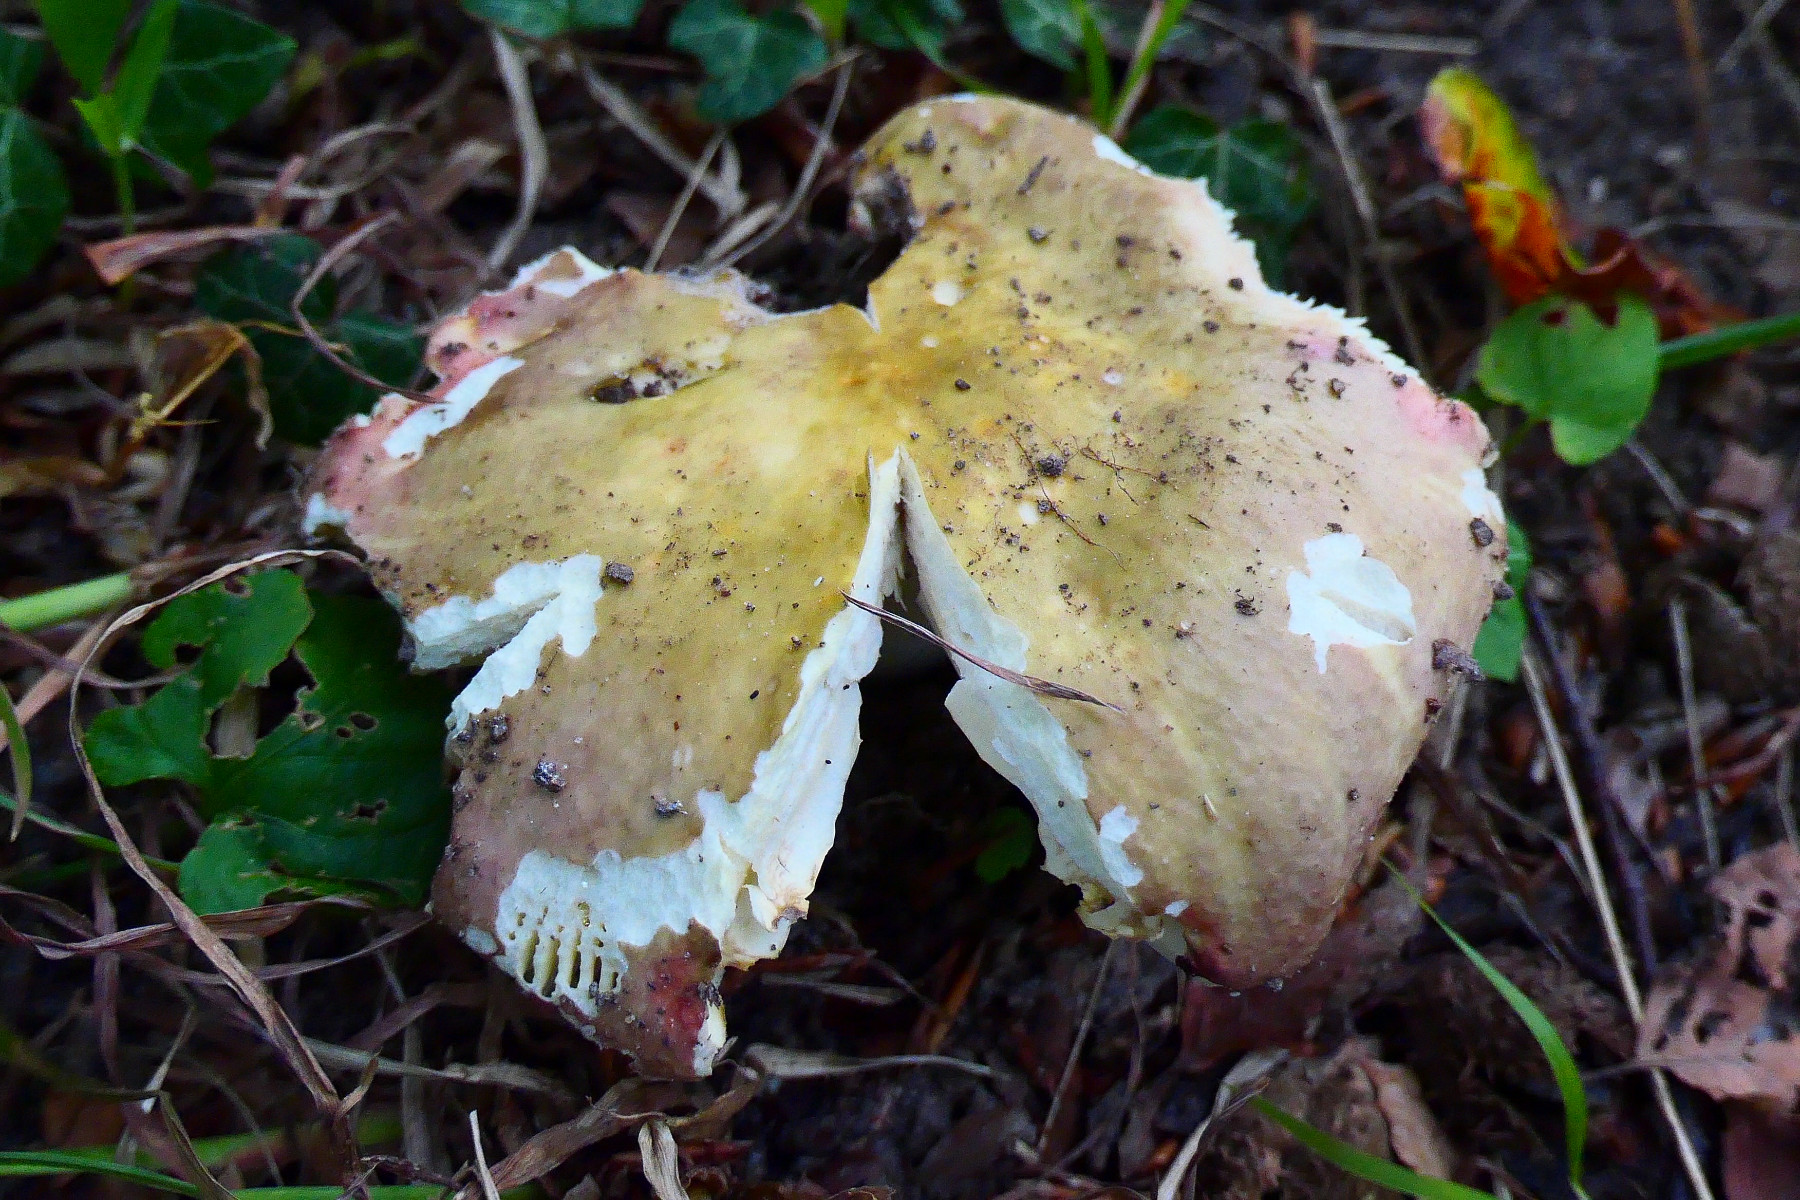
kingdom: Fungi
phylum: Basidiomycota
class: Agaricomycetes
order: Russulales
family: Russulaceae
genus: Russula
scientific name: Russula romellii
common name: romells skørhat
